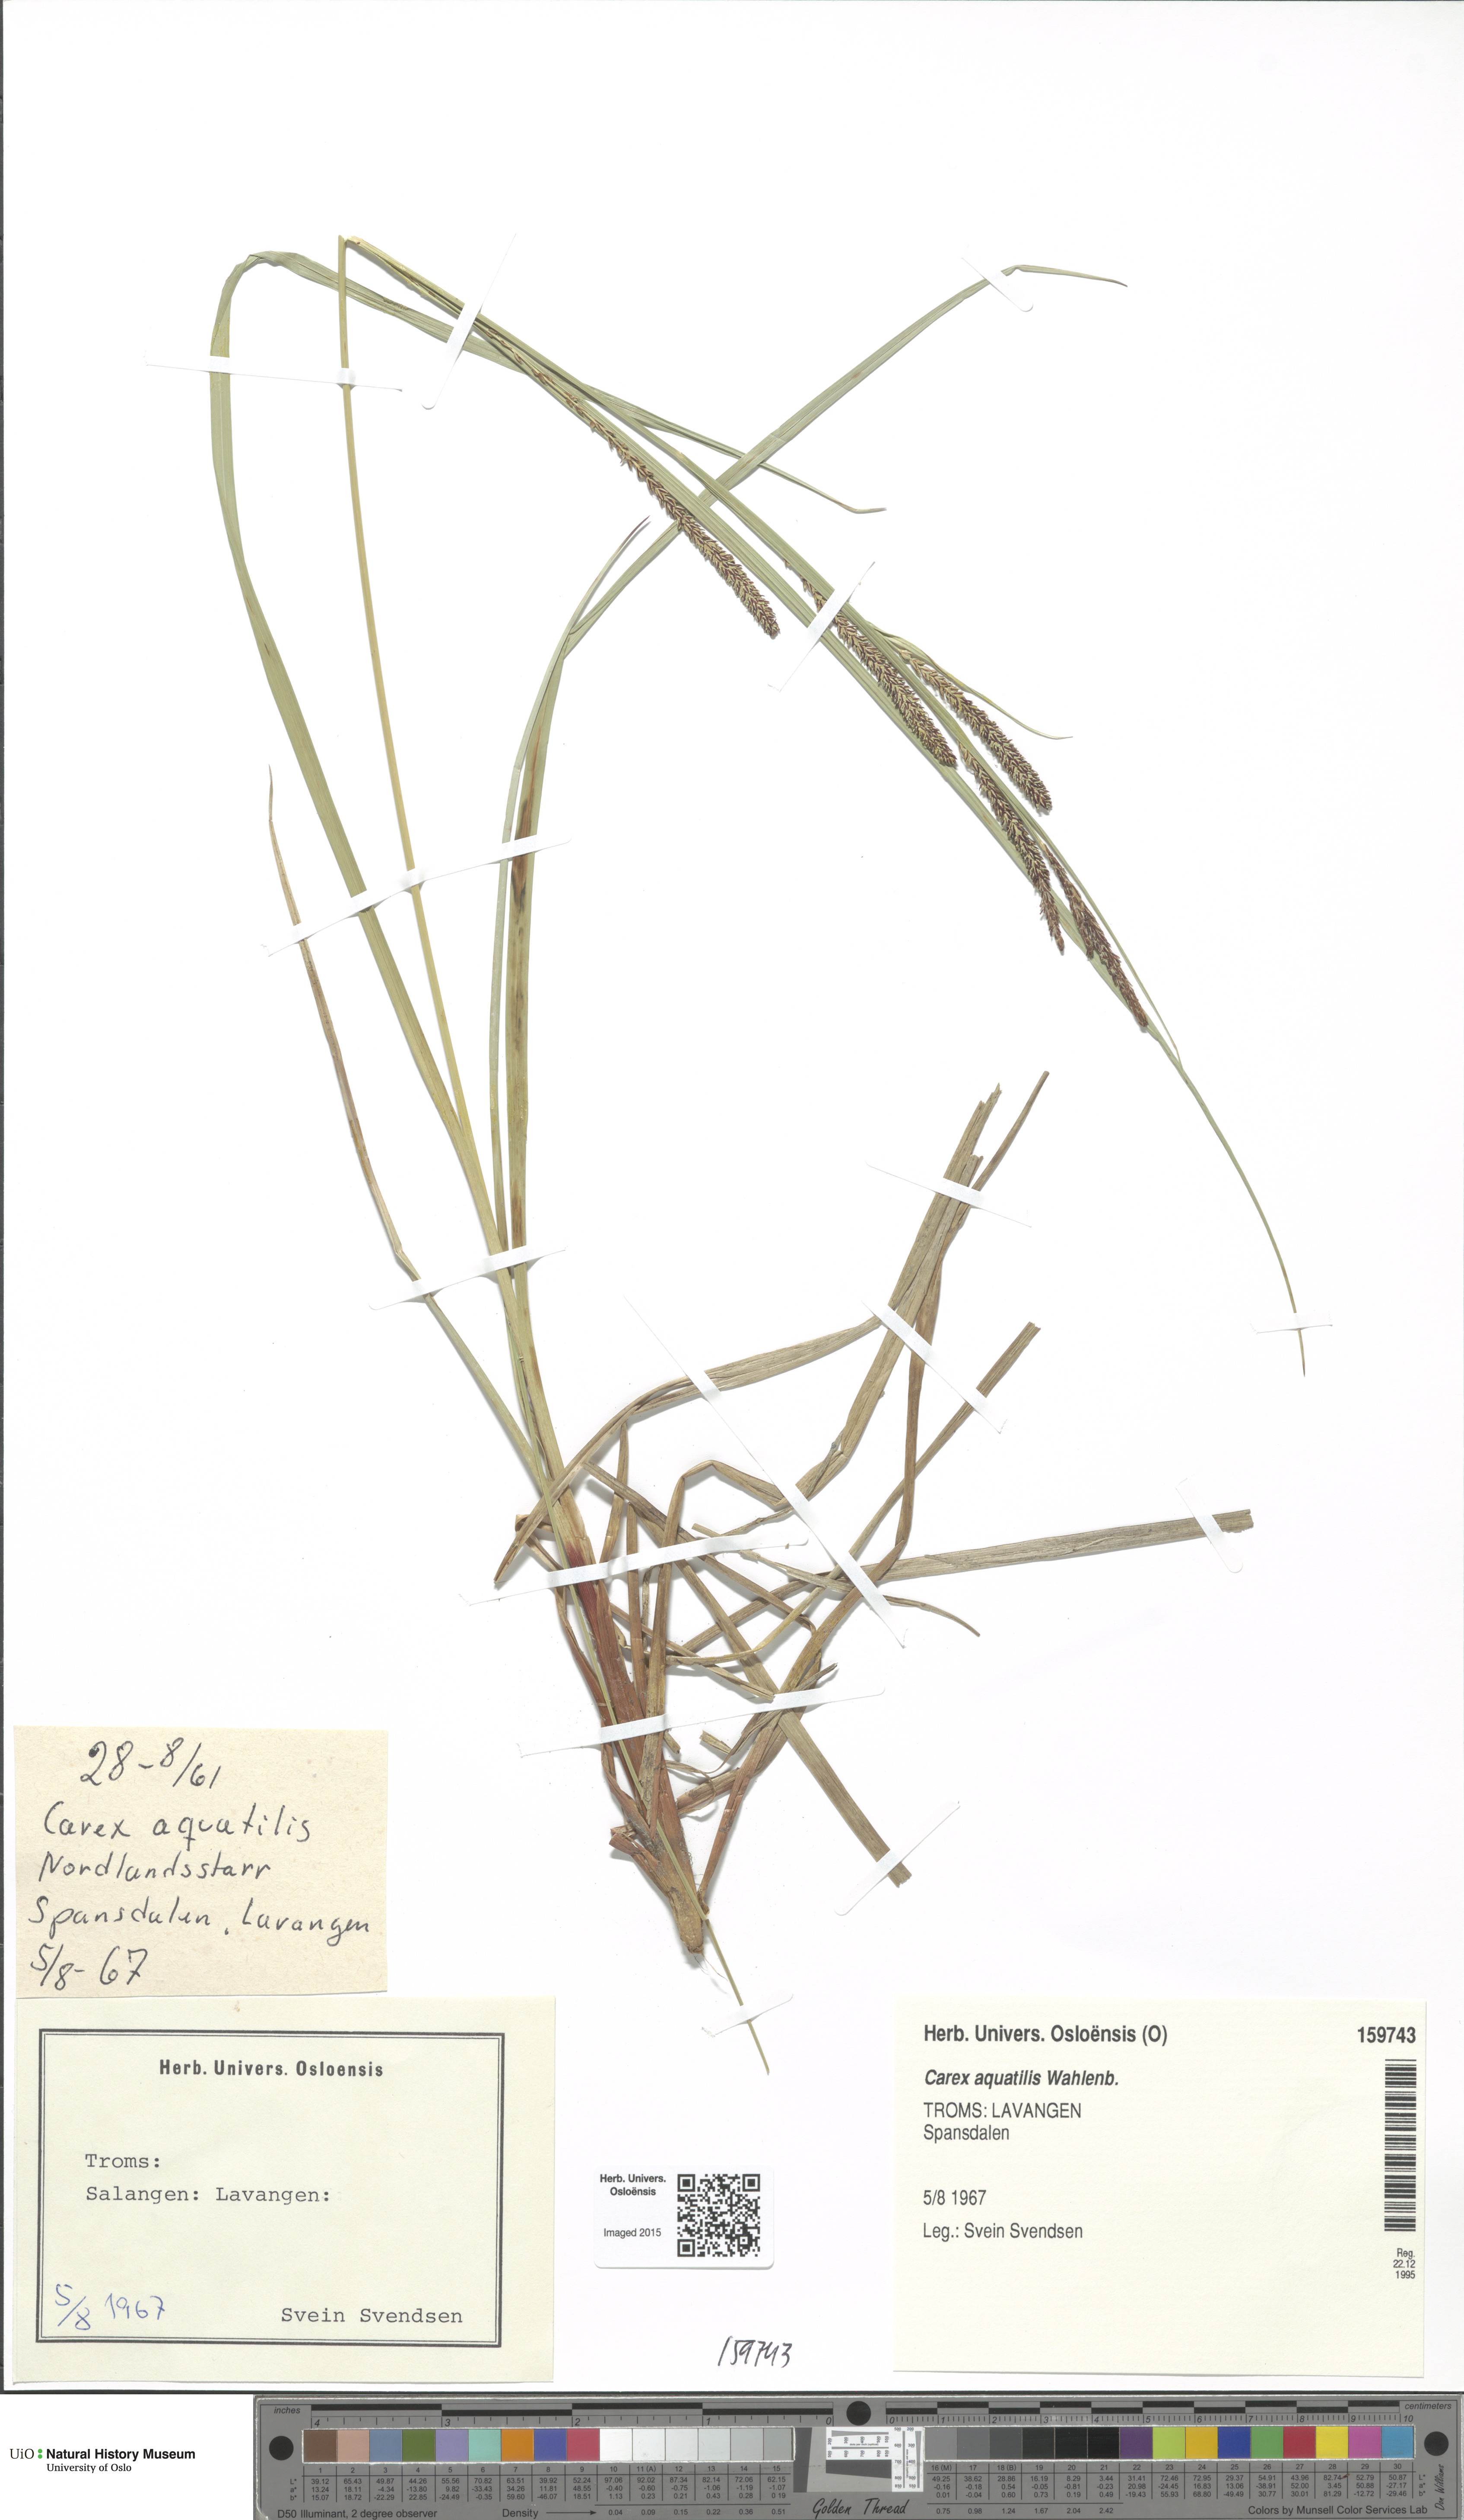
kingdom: Plantae
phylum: Tracheophyta
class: Liliopsida
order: Poales
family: Cyperaceae
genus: Carex
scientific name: Carex aquatilis
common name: Water sedge
